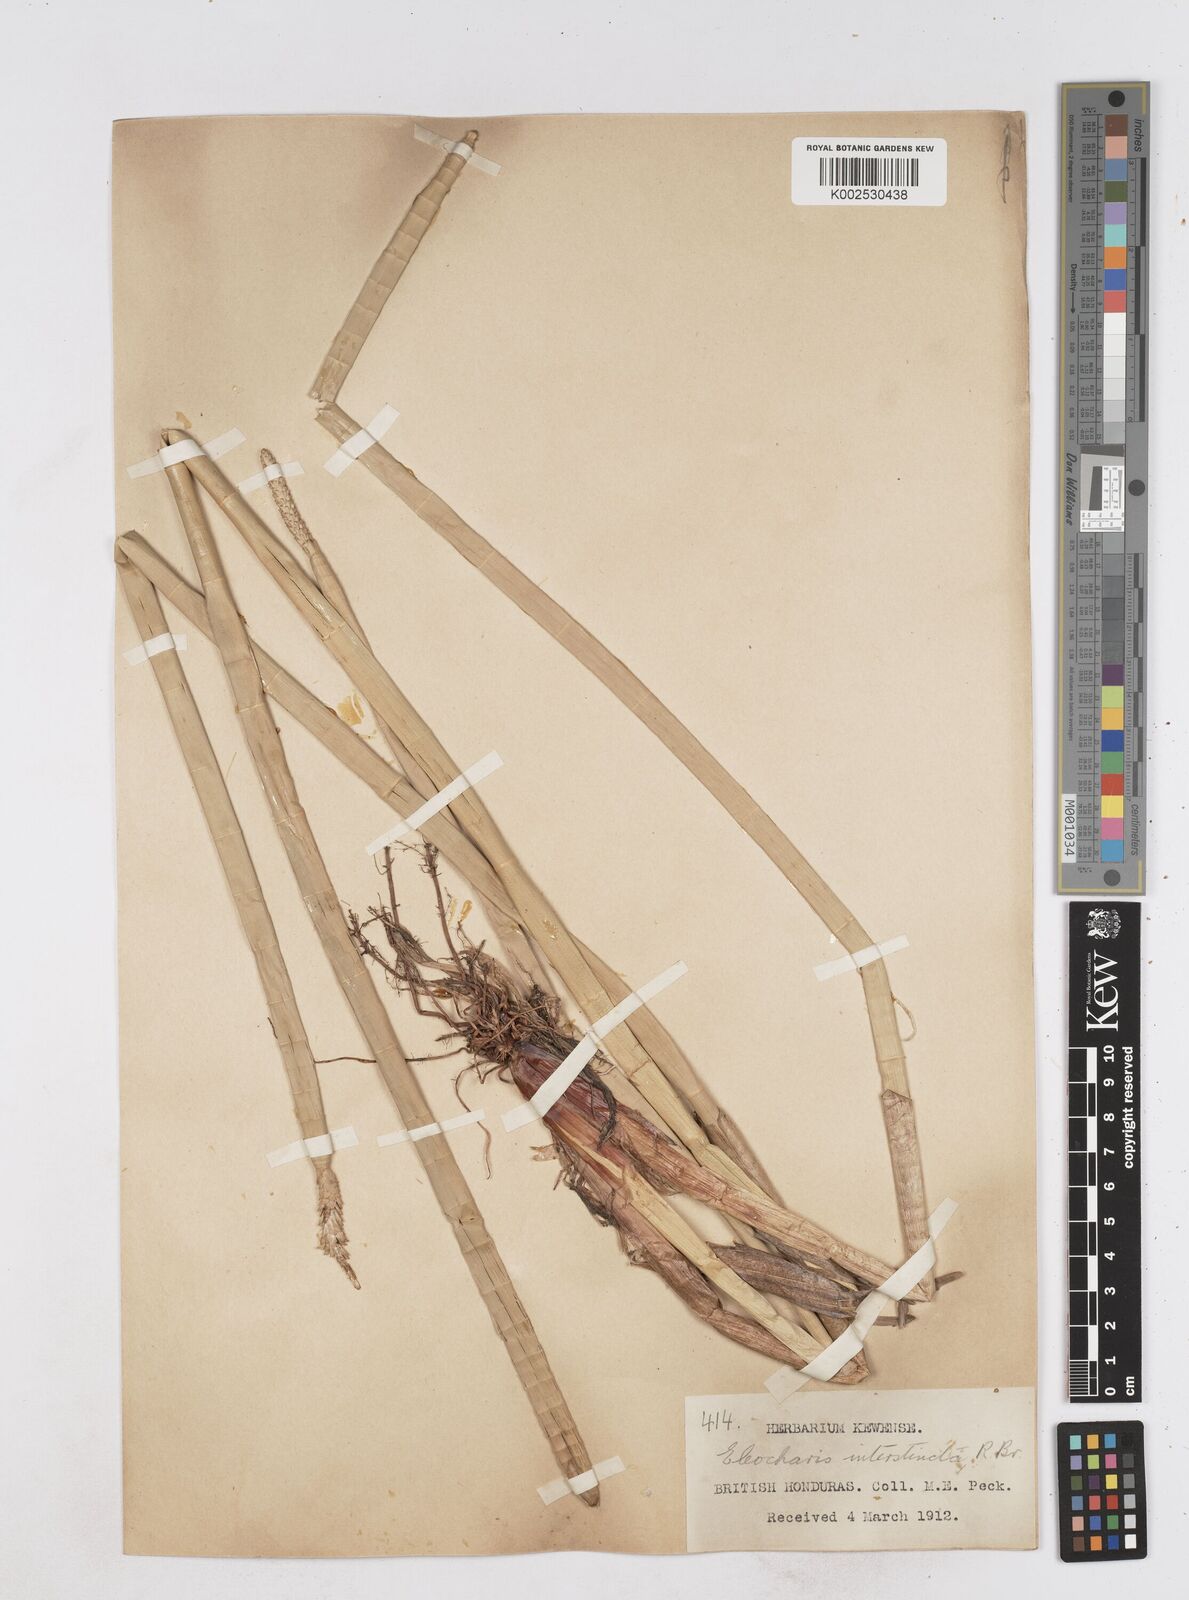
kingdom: Plantae
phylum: Tracheophyta
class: Liliopsida
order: Poales
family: Cyperaceae
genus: Eleocharis
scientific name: Eleocharis interstincta
